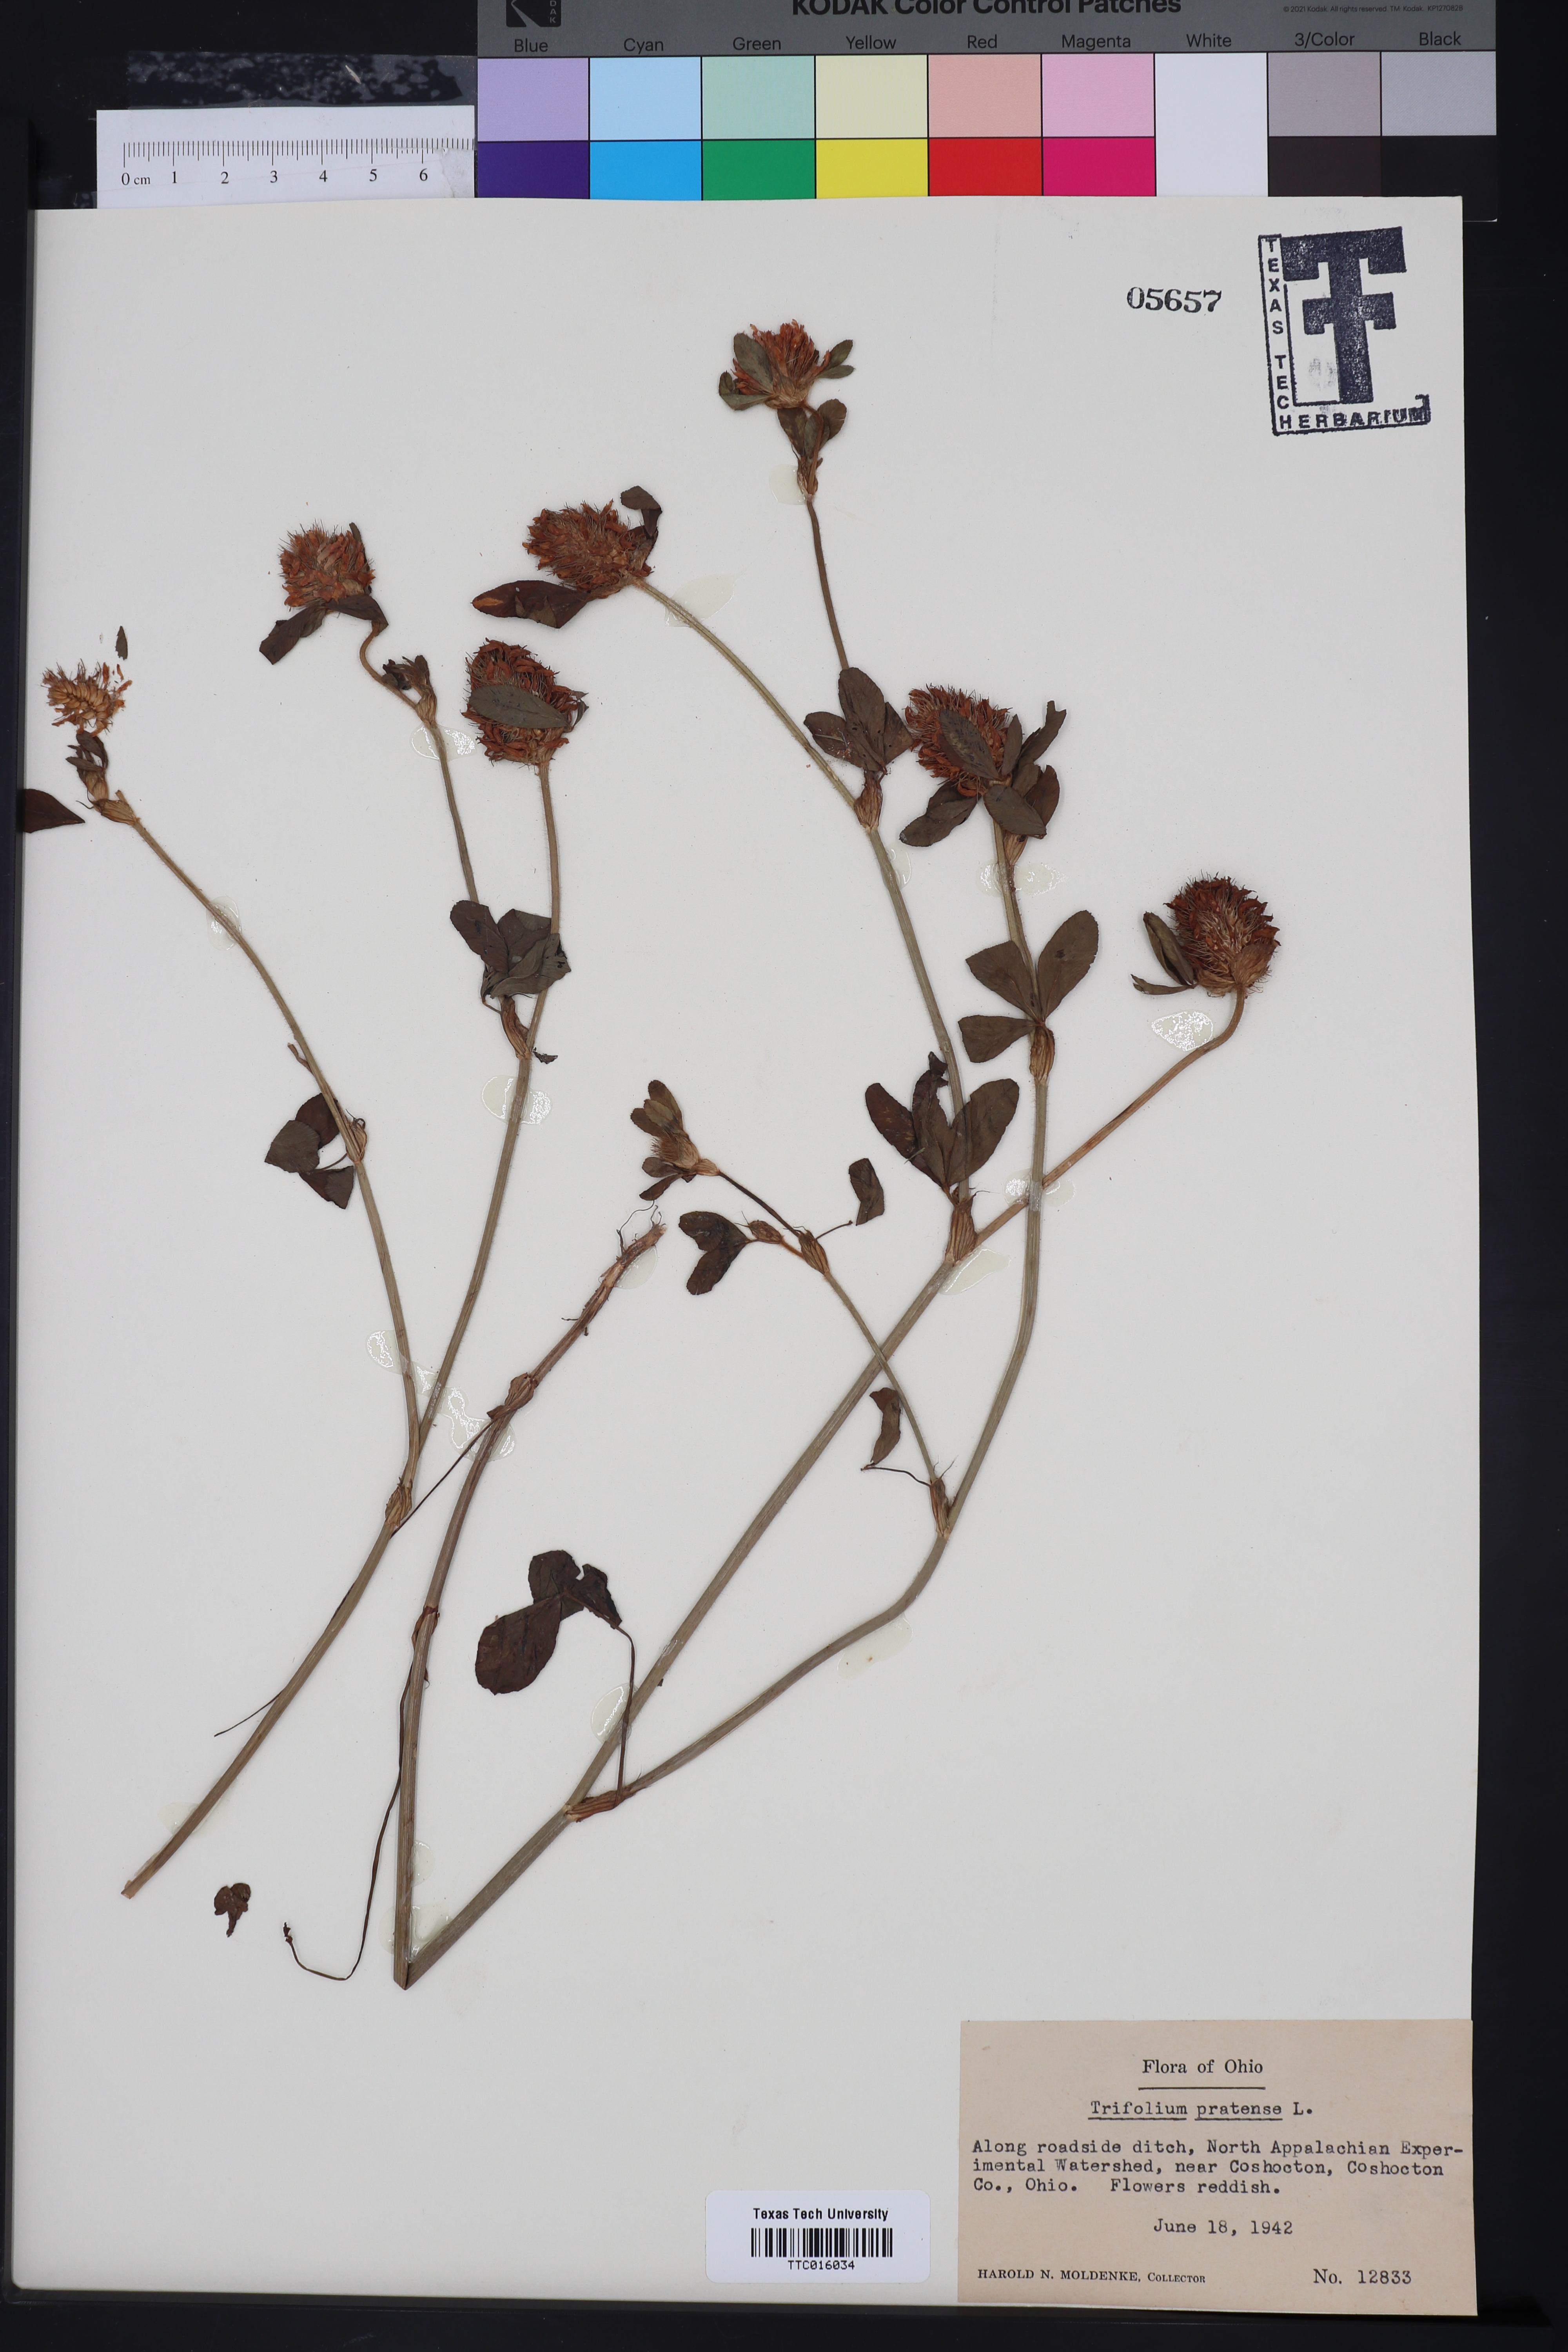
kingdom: Plantae
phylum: Tracheophyta
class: Magnoliopsida
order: Fabales
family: Fabaceae
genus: Trifolium
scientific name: Trifolium pratense
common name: Red clover
